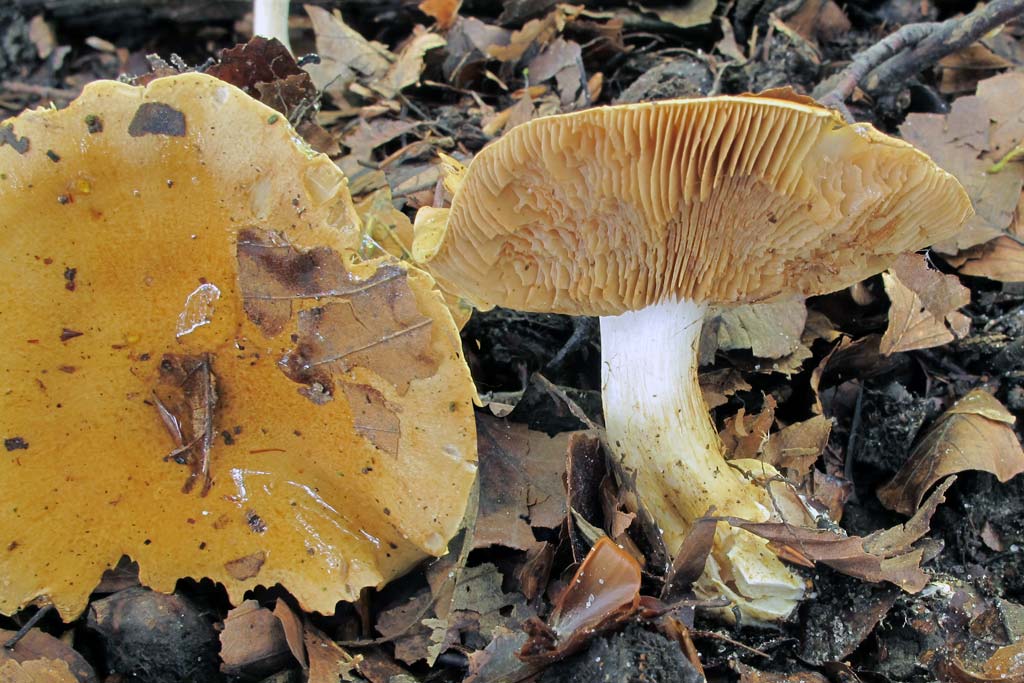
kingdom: Fungi
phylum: Basidiomycota
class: Agaricomycetes
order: Agaricales
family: Cortinariaceae
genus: Phlegmacium
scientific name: Phlegmacium cliduchus
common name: majs-slørhat
